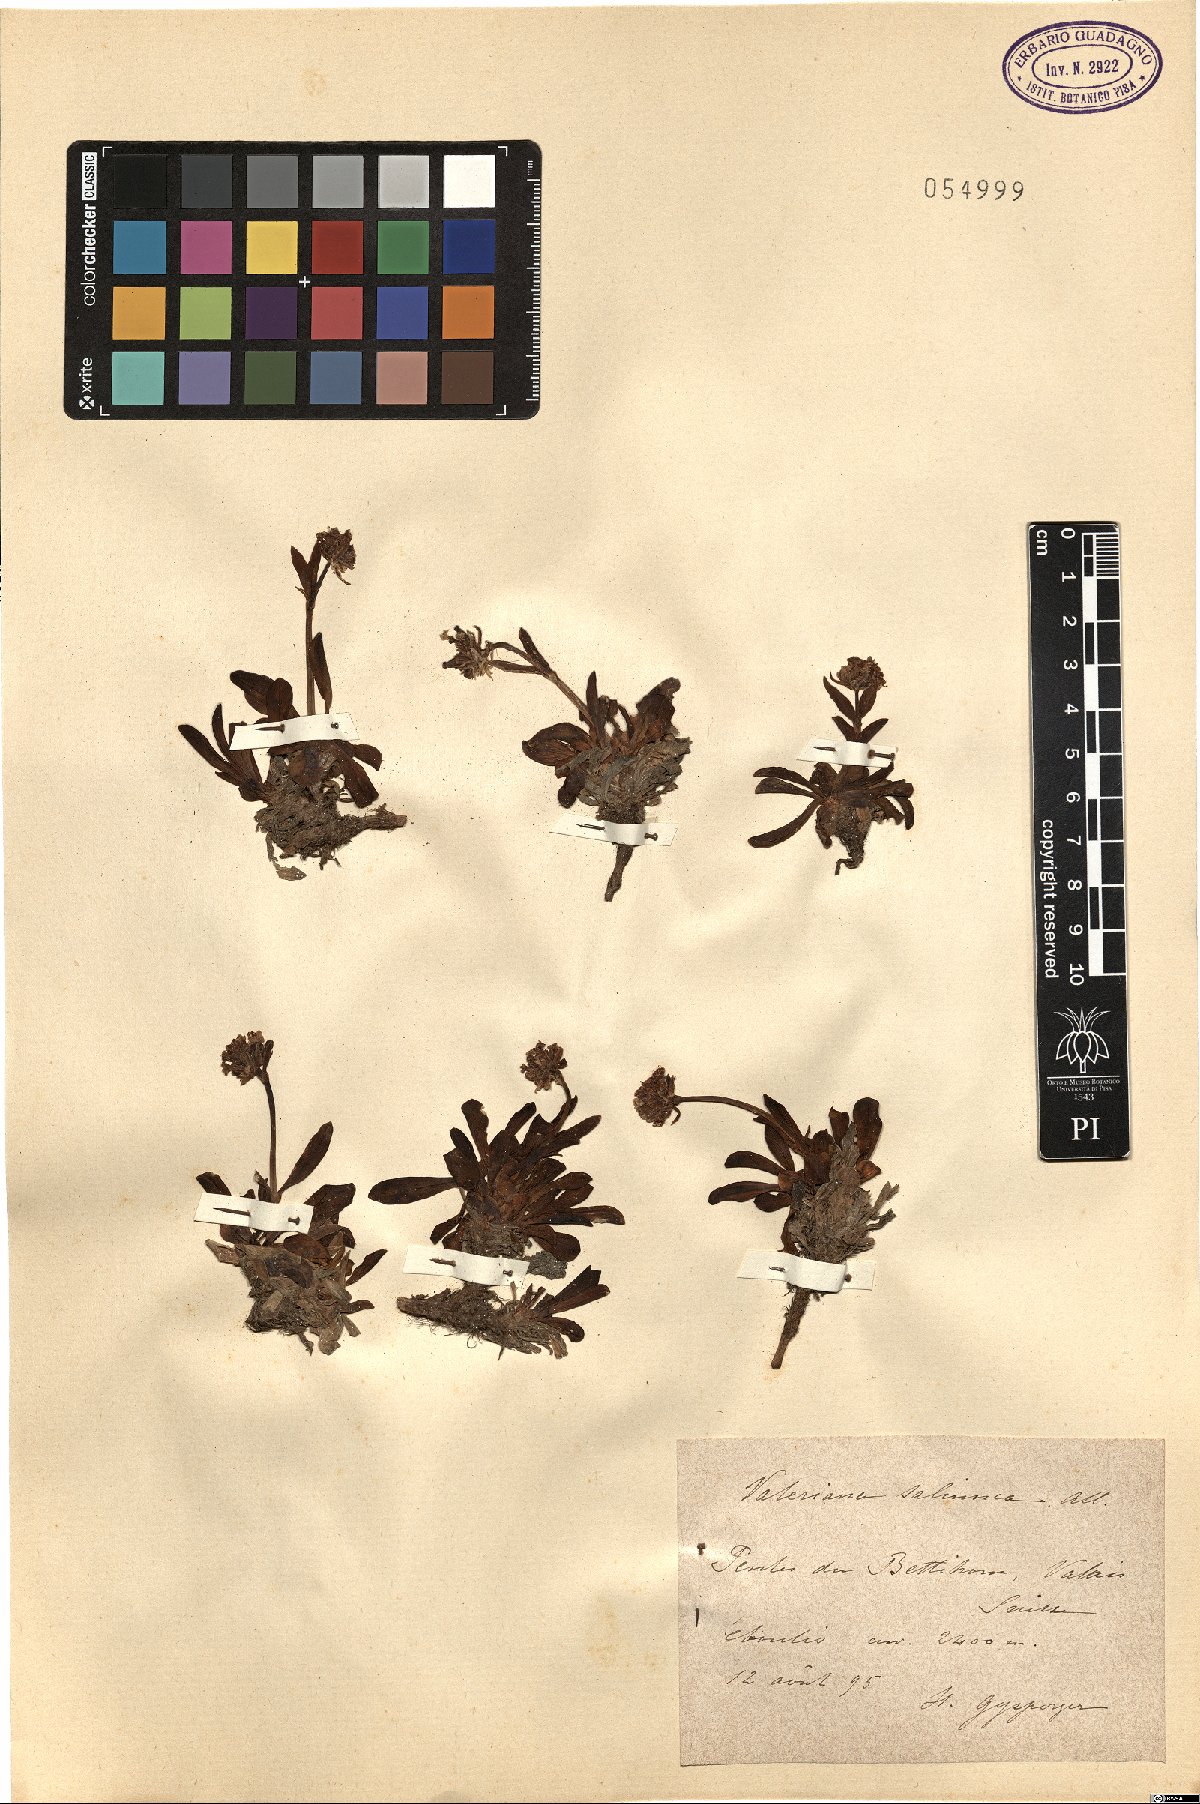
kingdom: Plantae
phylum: Tracheophyta
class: Magnoliopsida
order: Dipsacales
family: Caprifoliaceae
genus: Valeriana
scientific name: Valeriana saliunca
